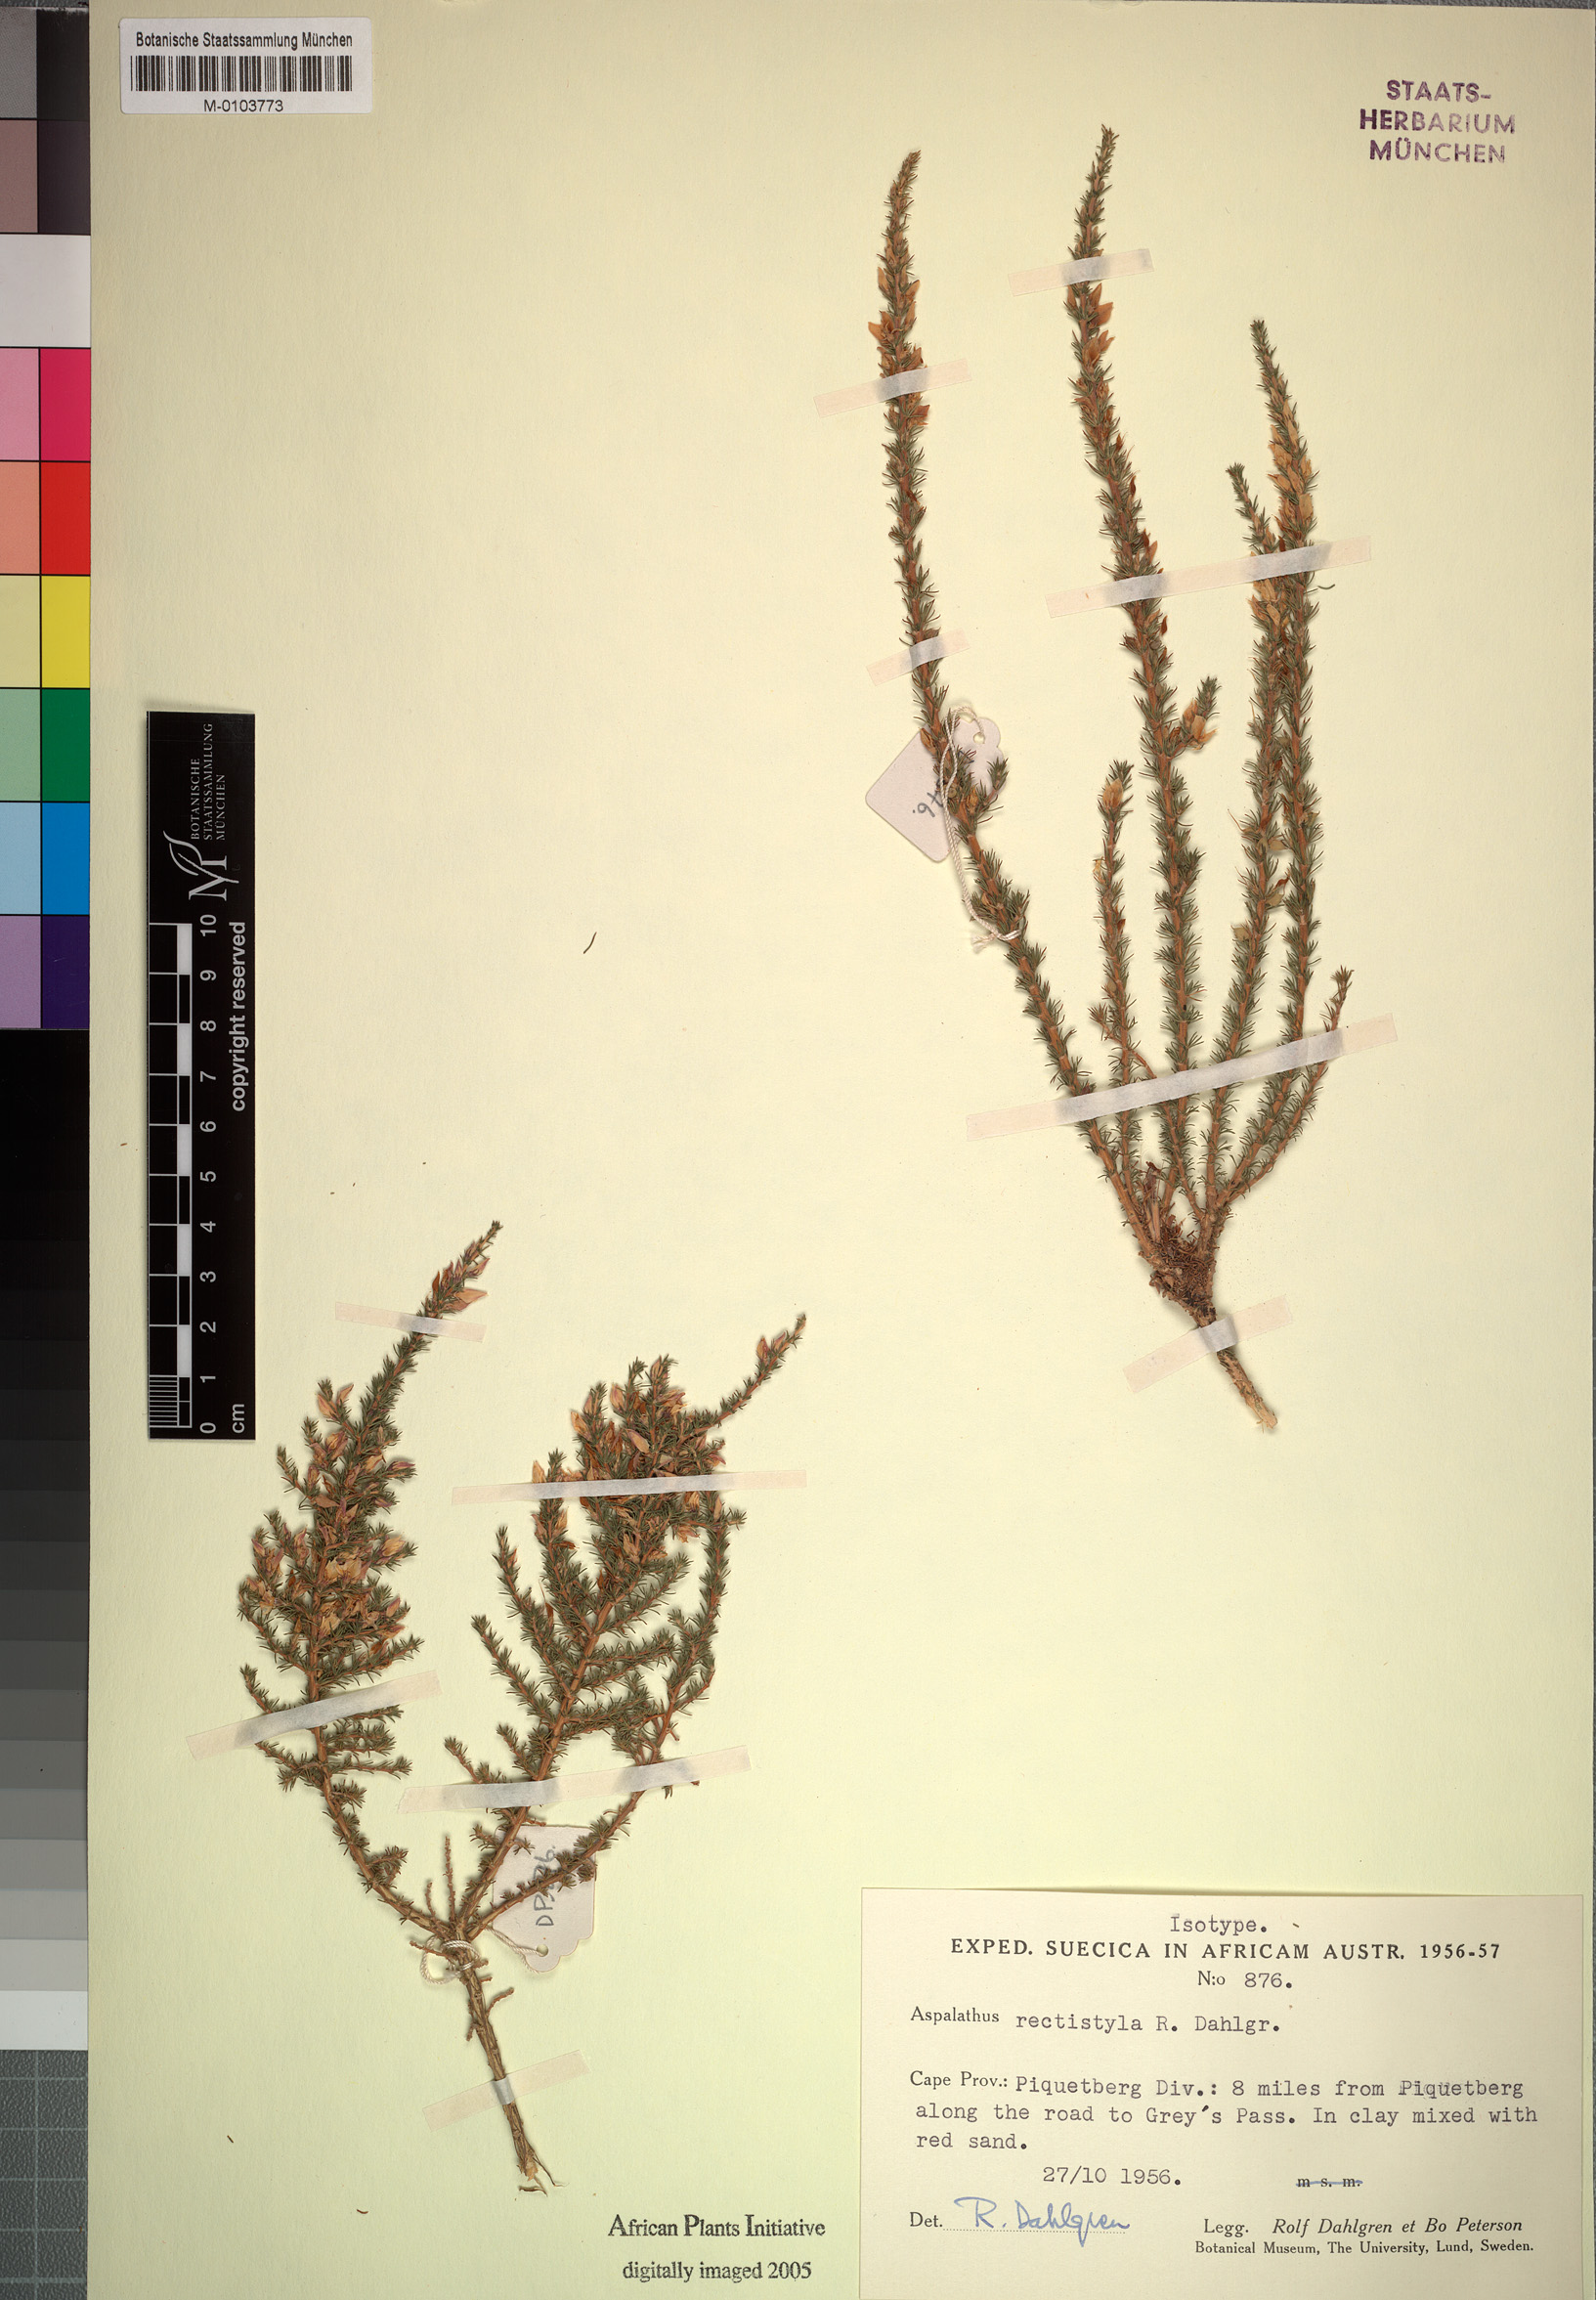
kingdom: Plantae
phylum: Tracheophyta
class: Magnoliopsida
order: Fabales
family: Fabaceae
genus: Aspalathus
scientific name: Aspalathus rectistyla
